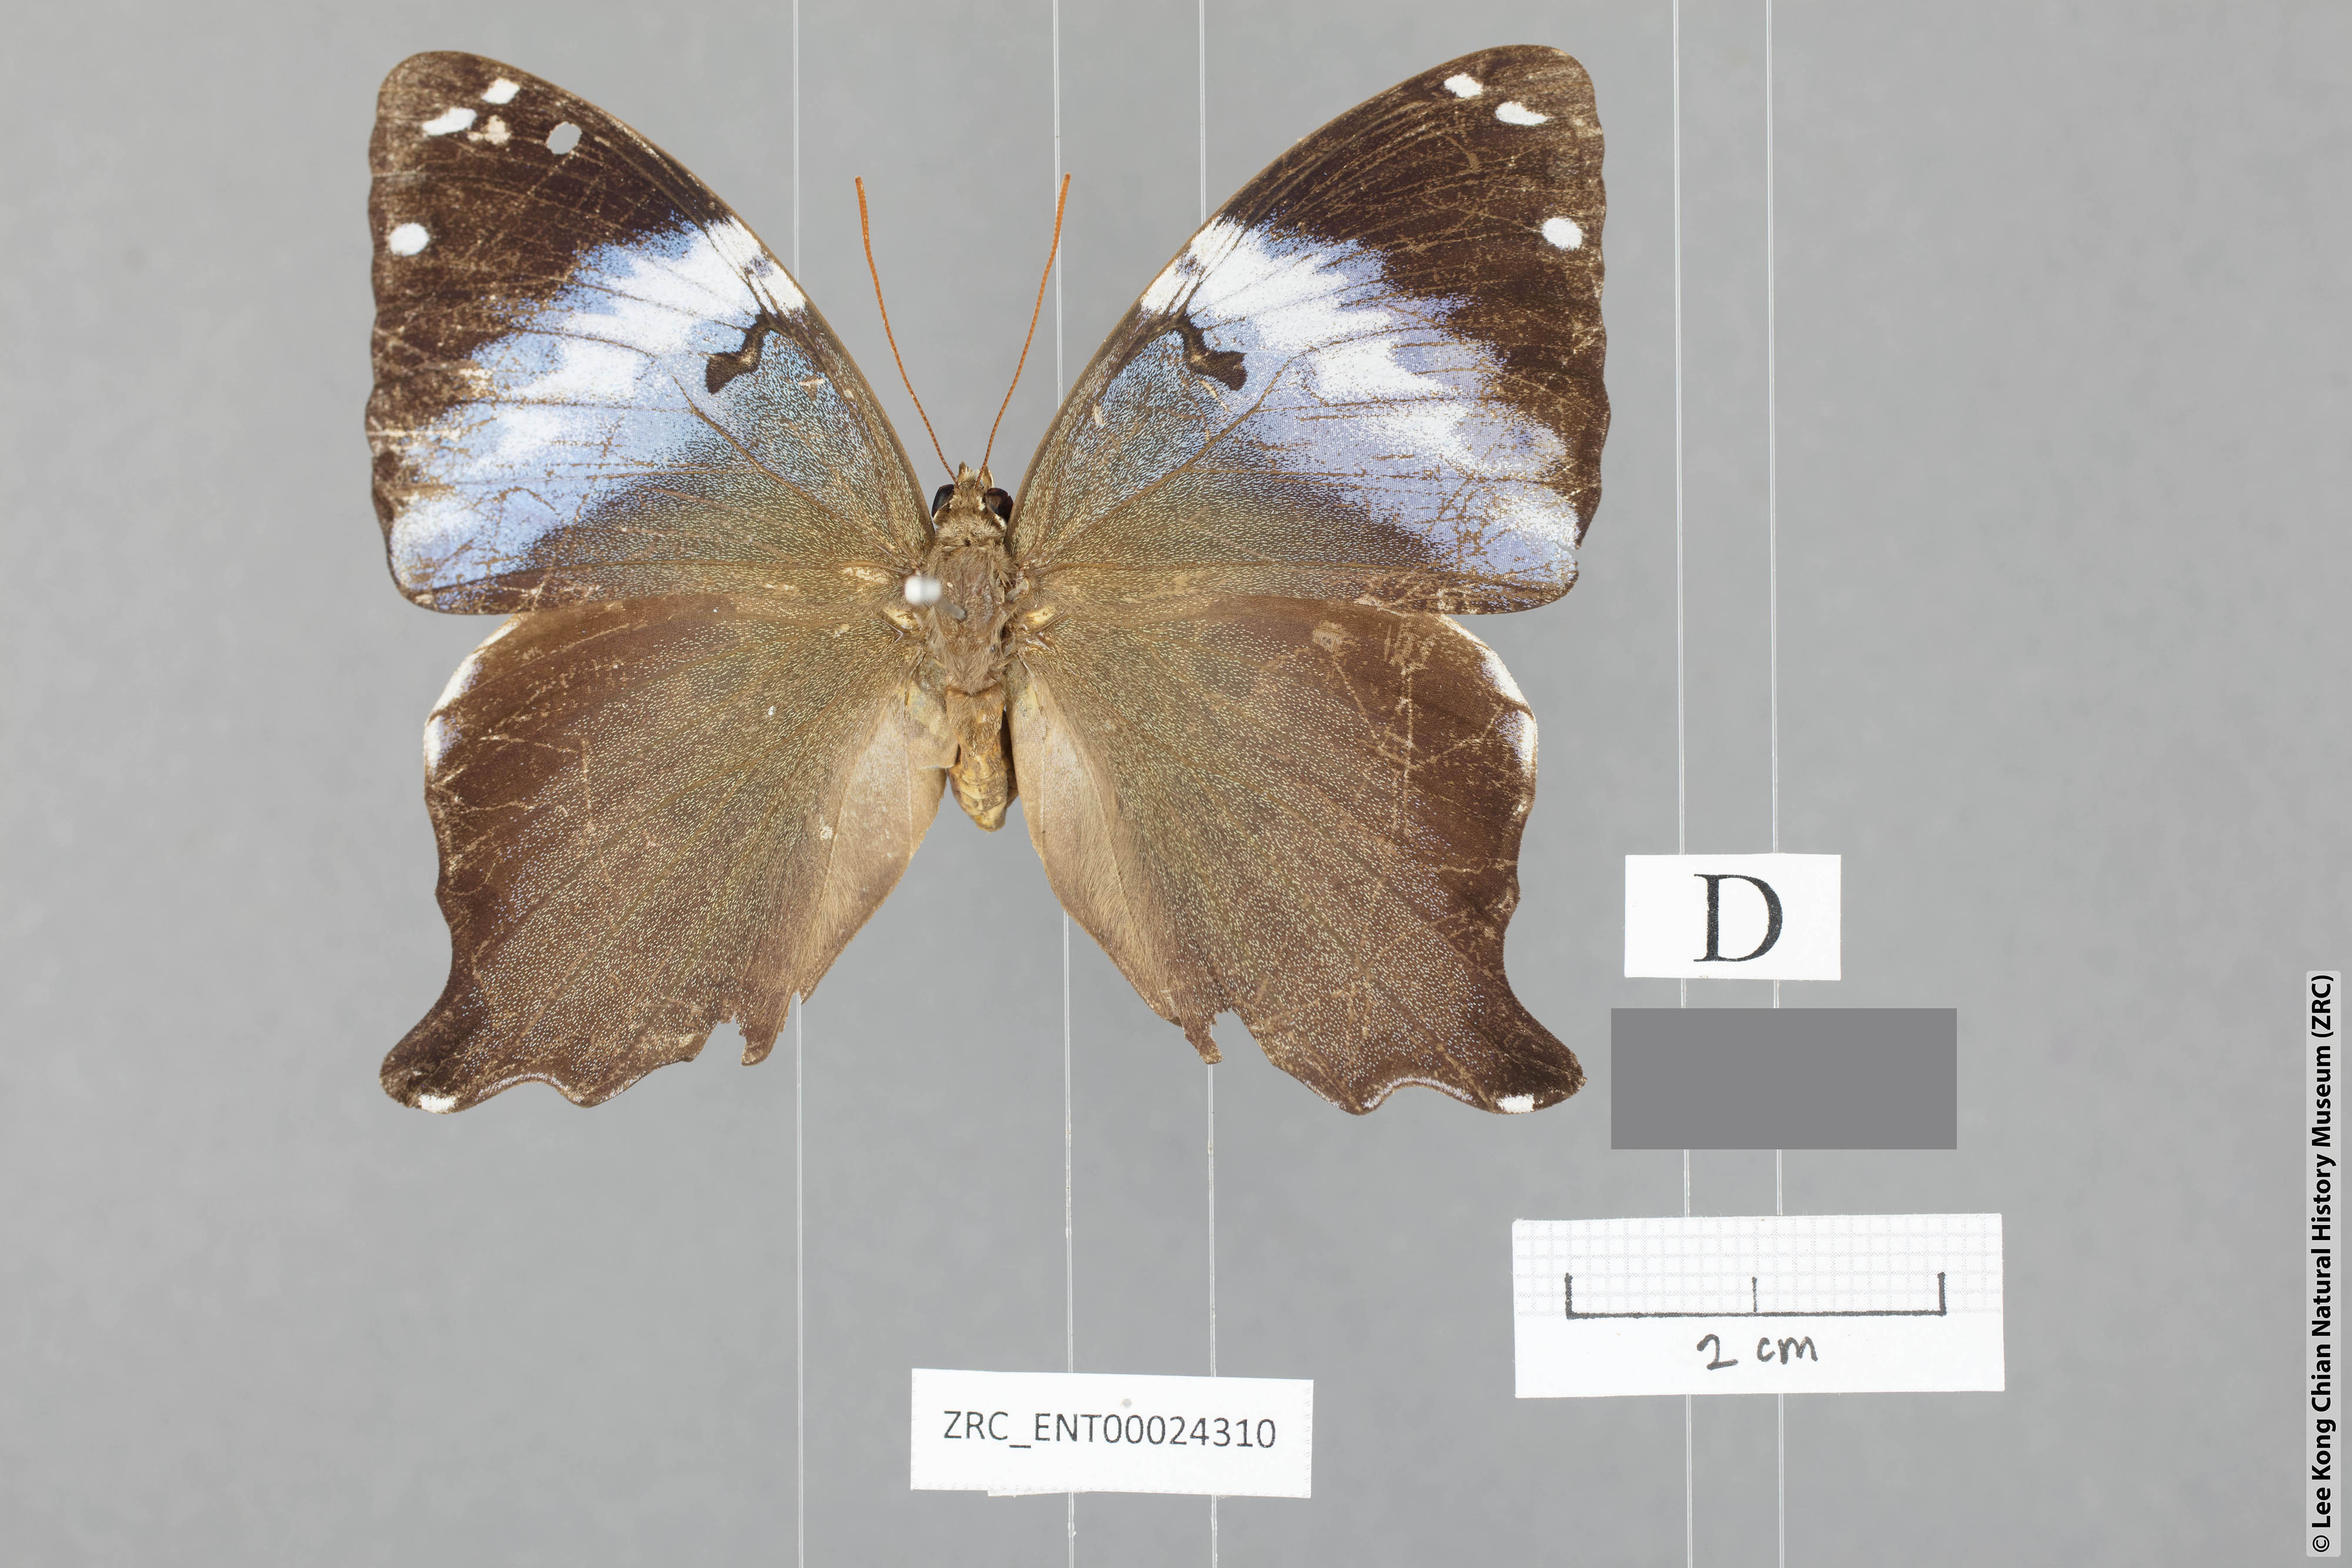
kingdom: Animalia
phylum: Arthropoda
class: Insecta
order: Lepidoptera
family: Nymphalidae
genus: Prothoe
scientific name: Prothoe
